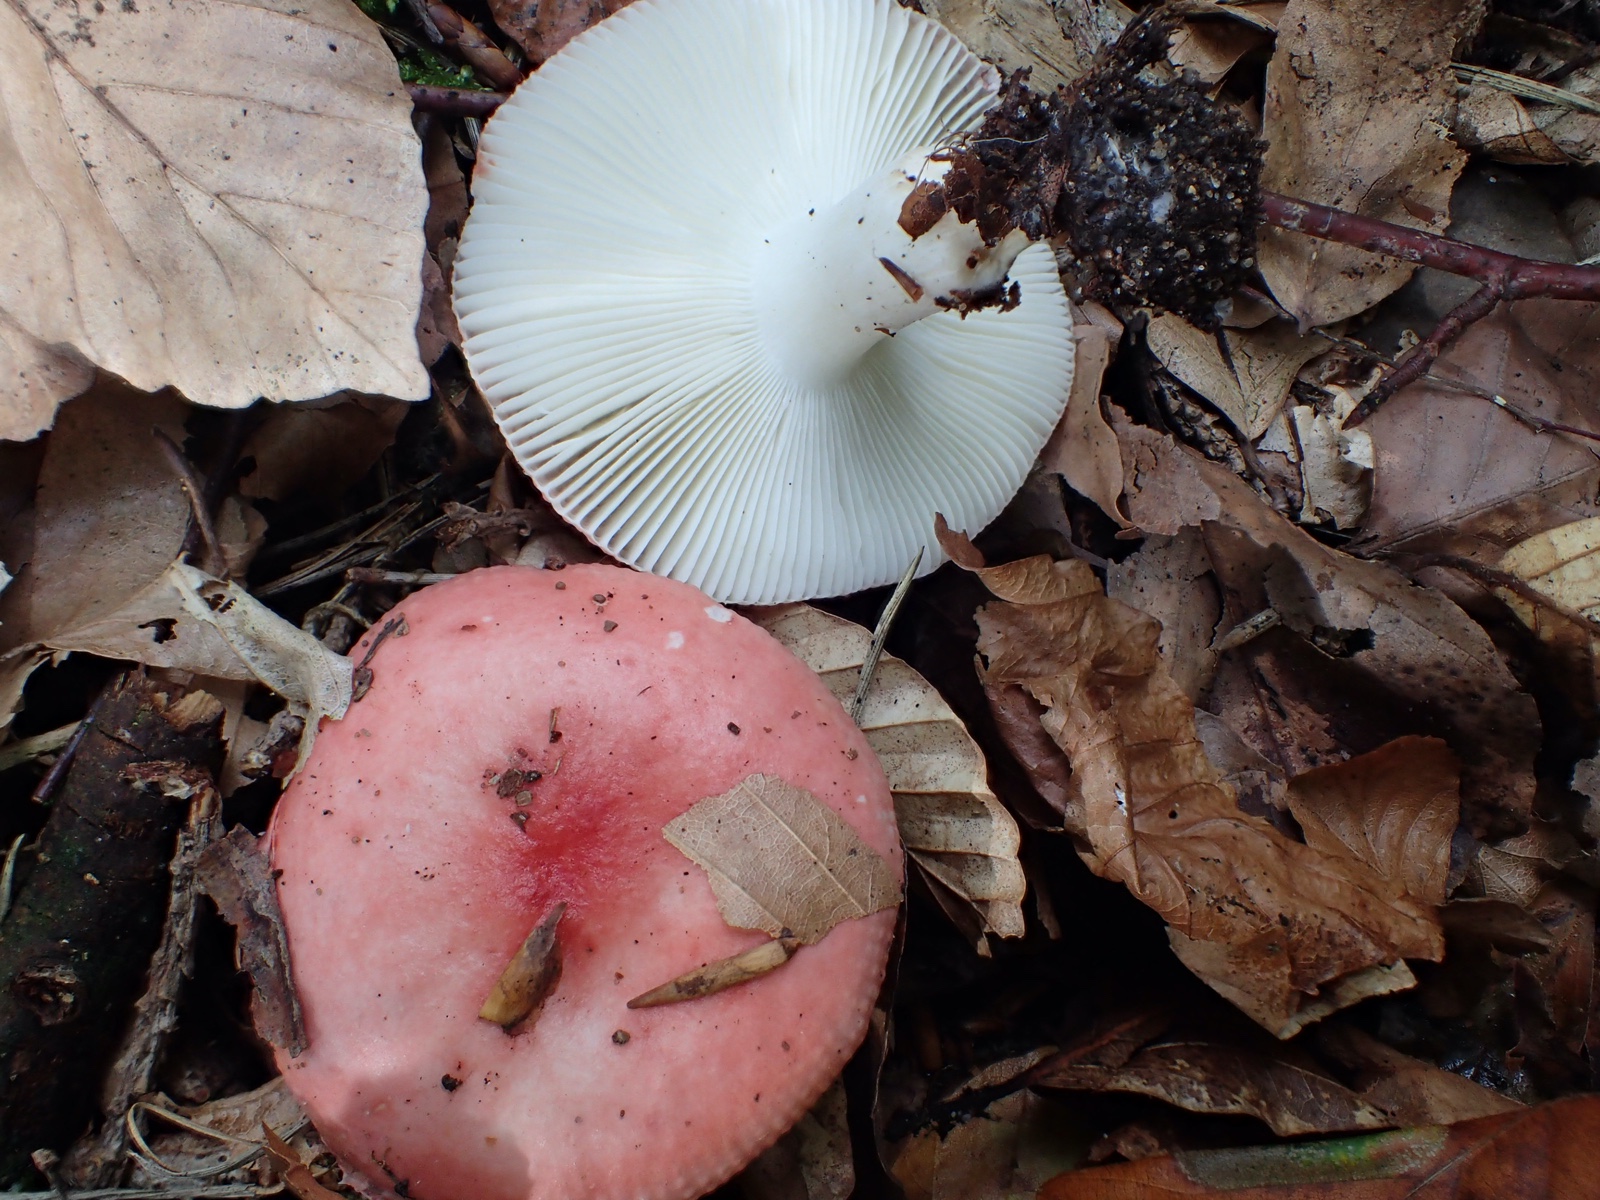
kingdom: Fungi
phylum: Basidiomycota
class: Agaricomycetes
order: Russulales
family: Russulaceae
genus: Russula
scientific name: Russula
